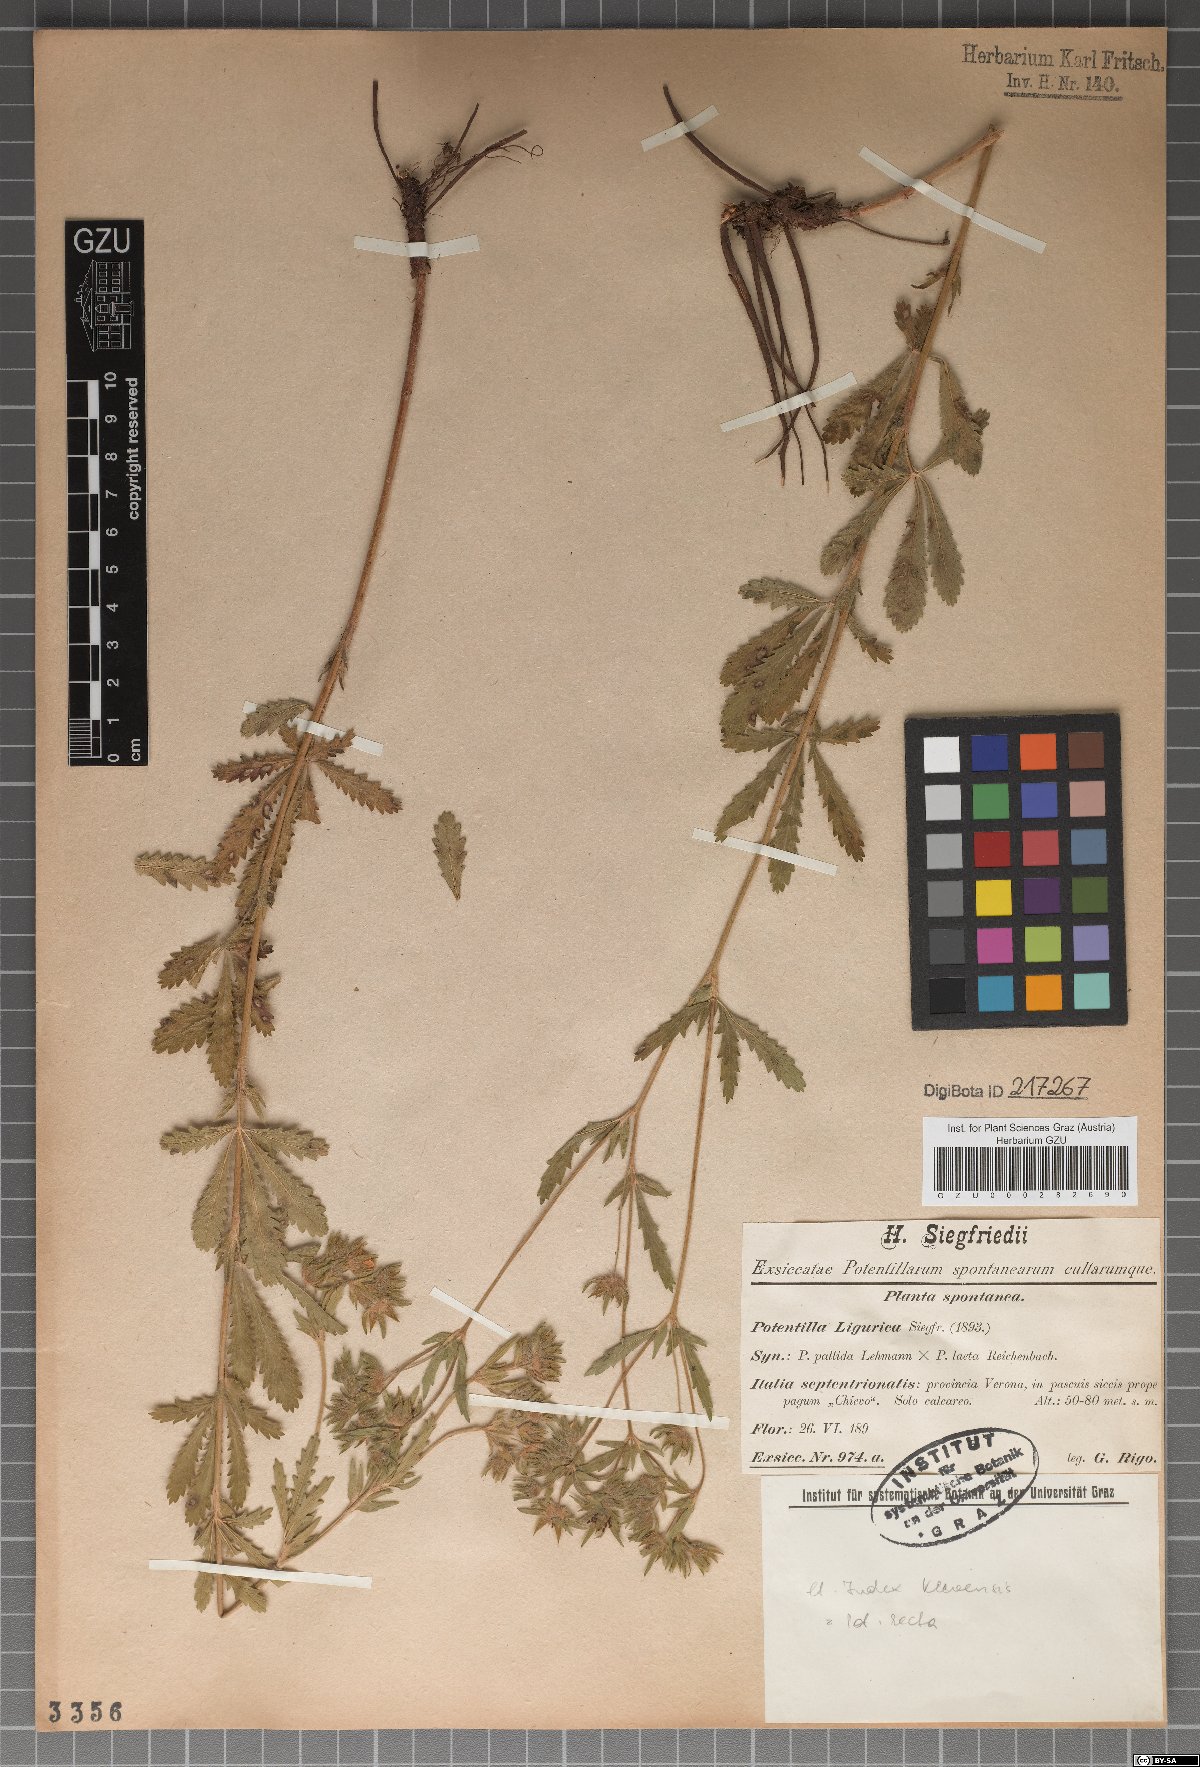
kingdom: Plantae
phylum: Tracheophyta
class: Magnoliopsida
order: Rosales
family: Rosaceae
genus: Potentilla
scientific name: Potentilla ligurica
